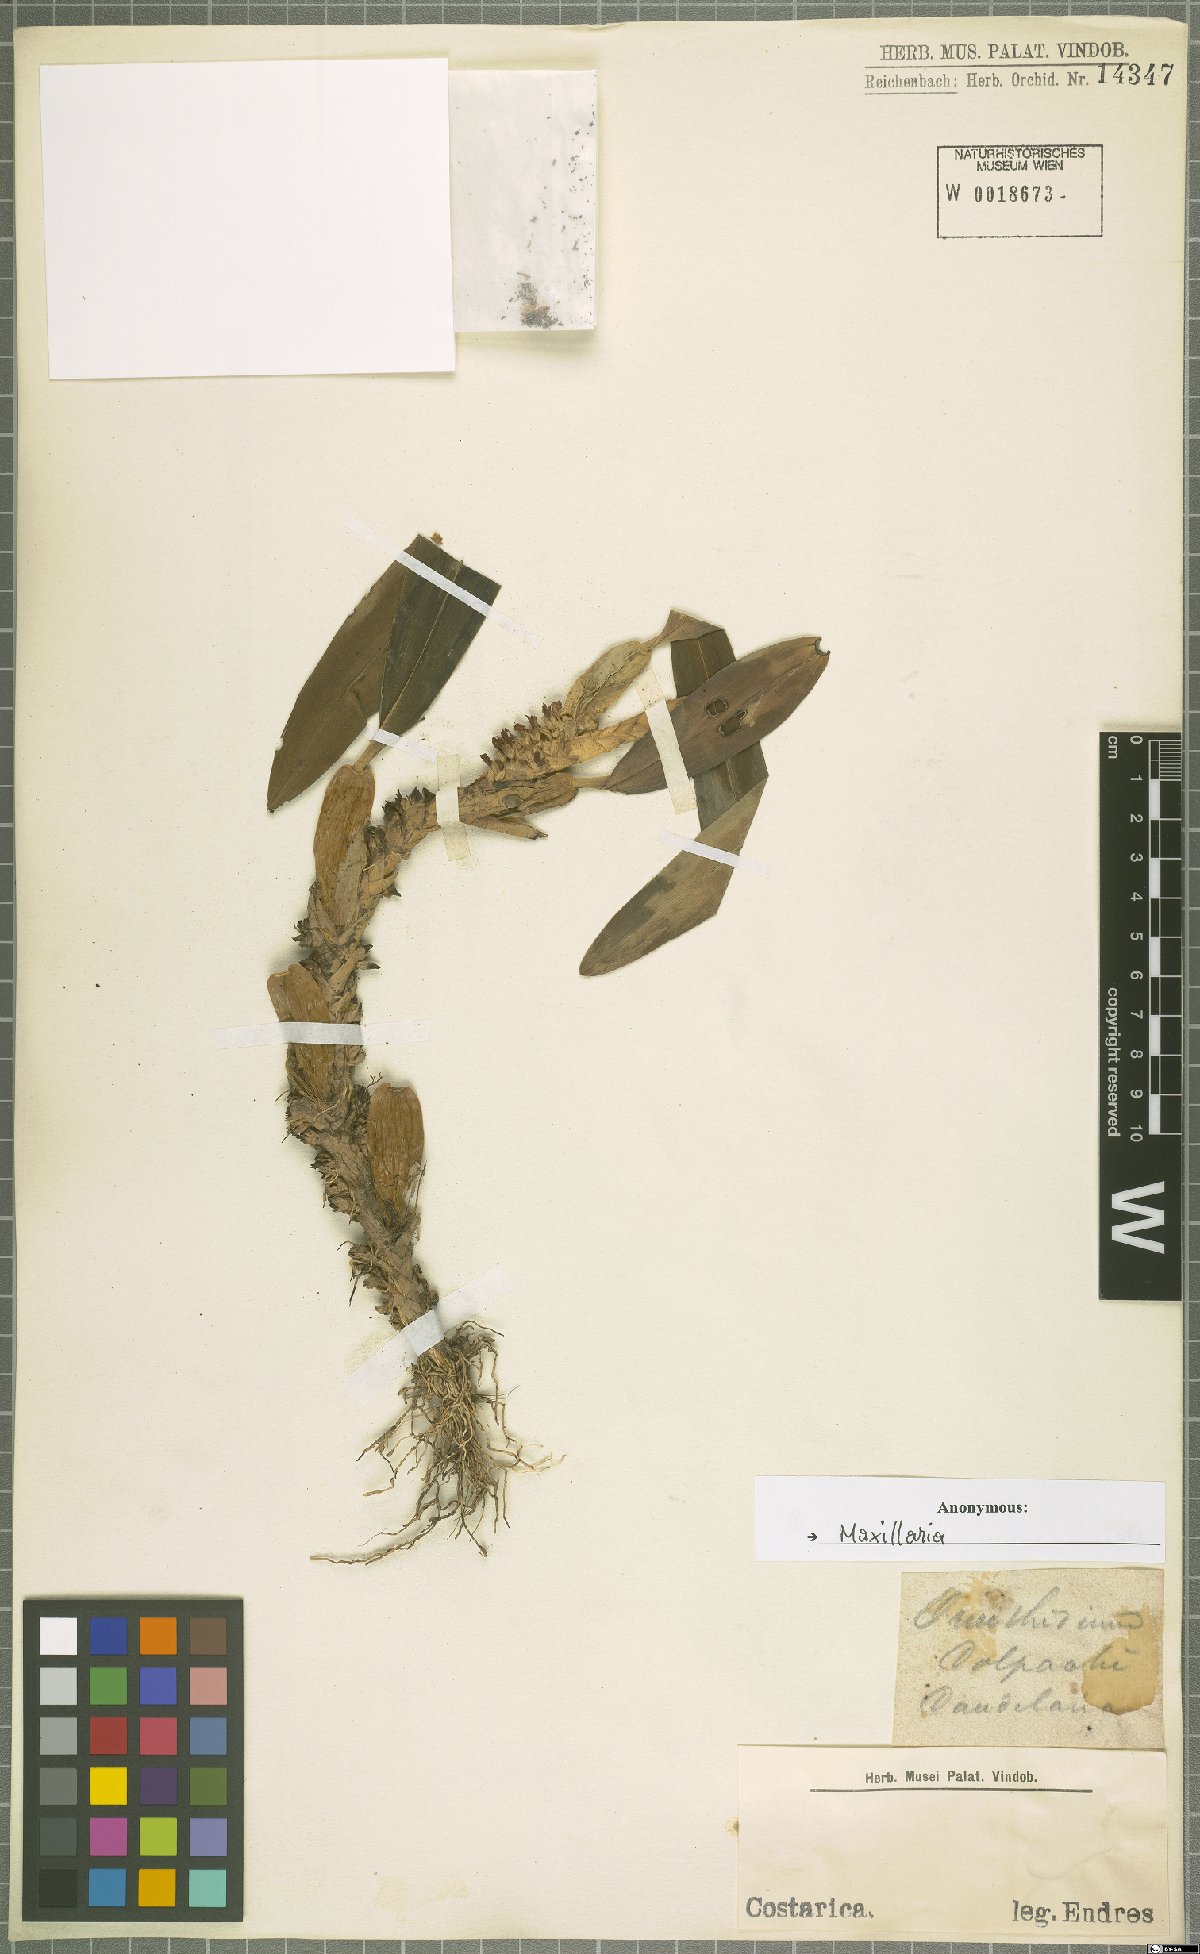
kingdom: Plantae
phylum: Tracheophyta
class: Liliopsida
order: Asparagales
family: Orchidaceae
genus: Maxillaria
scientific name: Maxillaria
